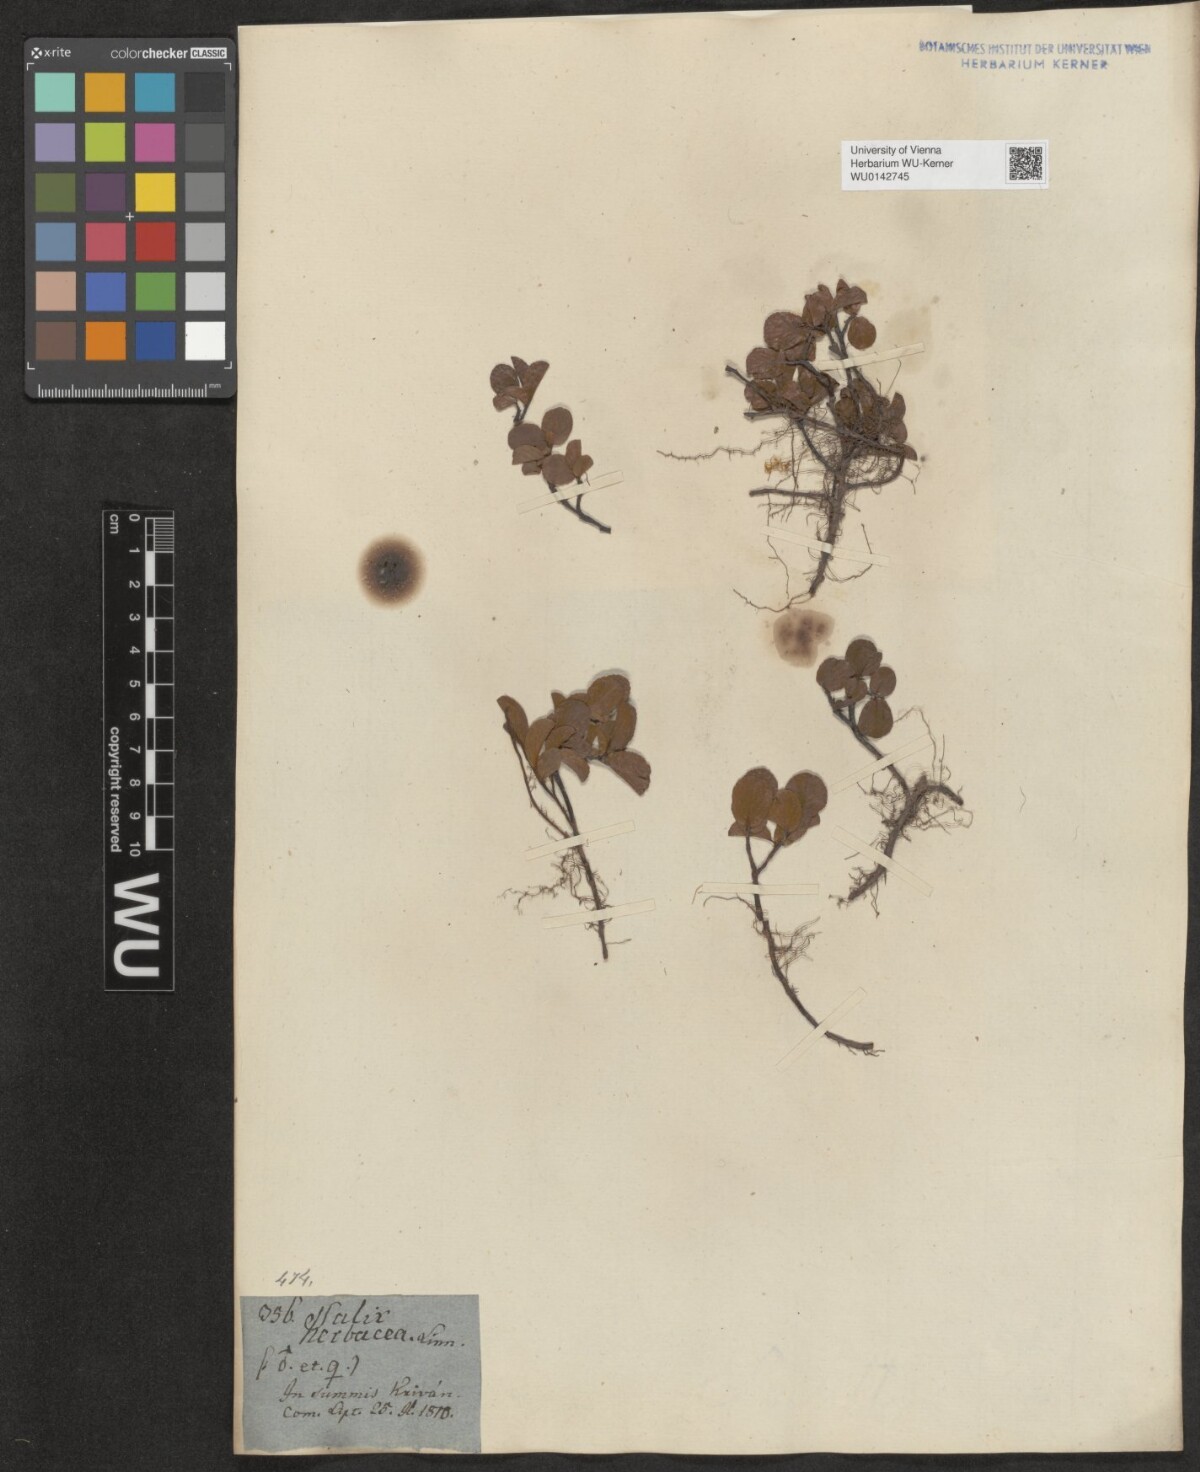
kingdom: Plantae
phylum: Tracheophyta
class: Magnoliopsida
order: Malpighiales
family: Salicaceae
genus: Salix
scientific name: Salix herbacea
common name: Dwarf willow
